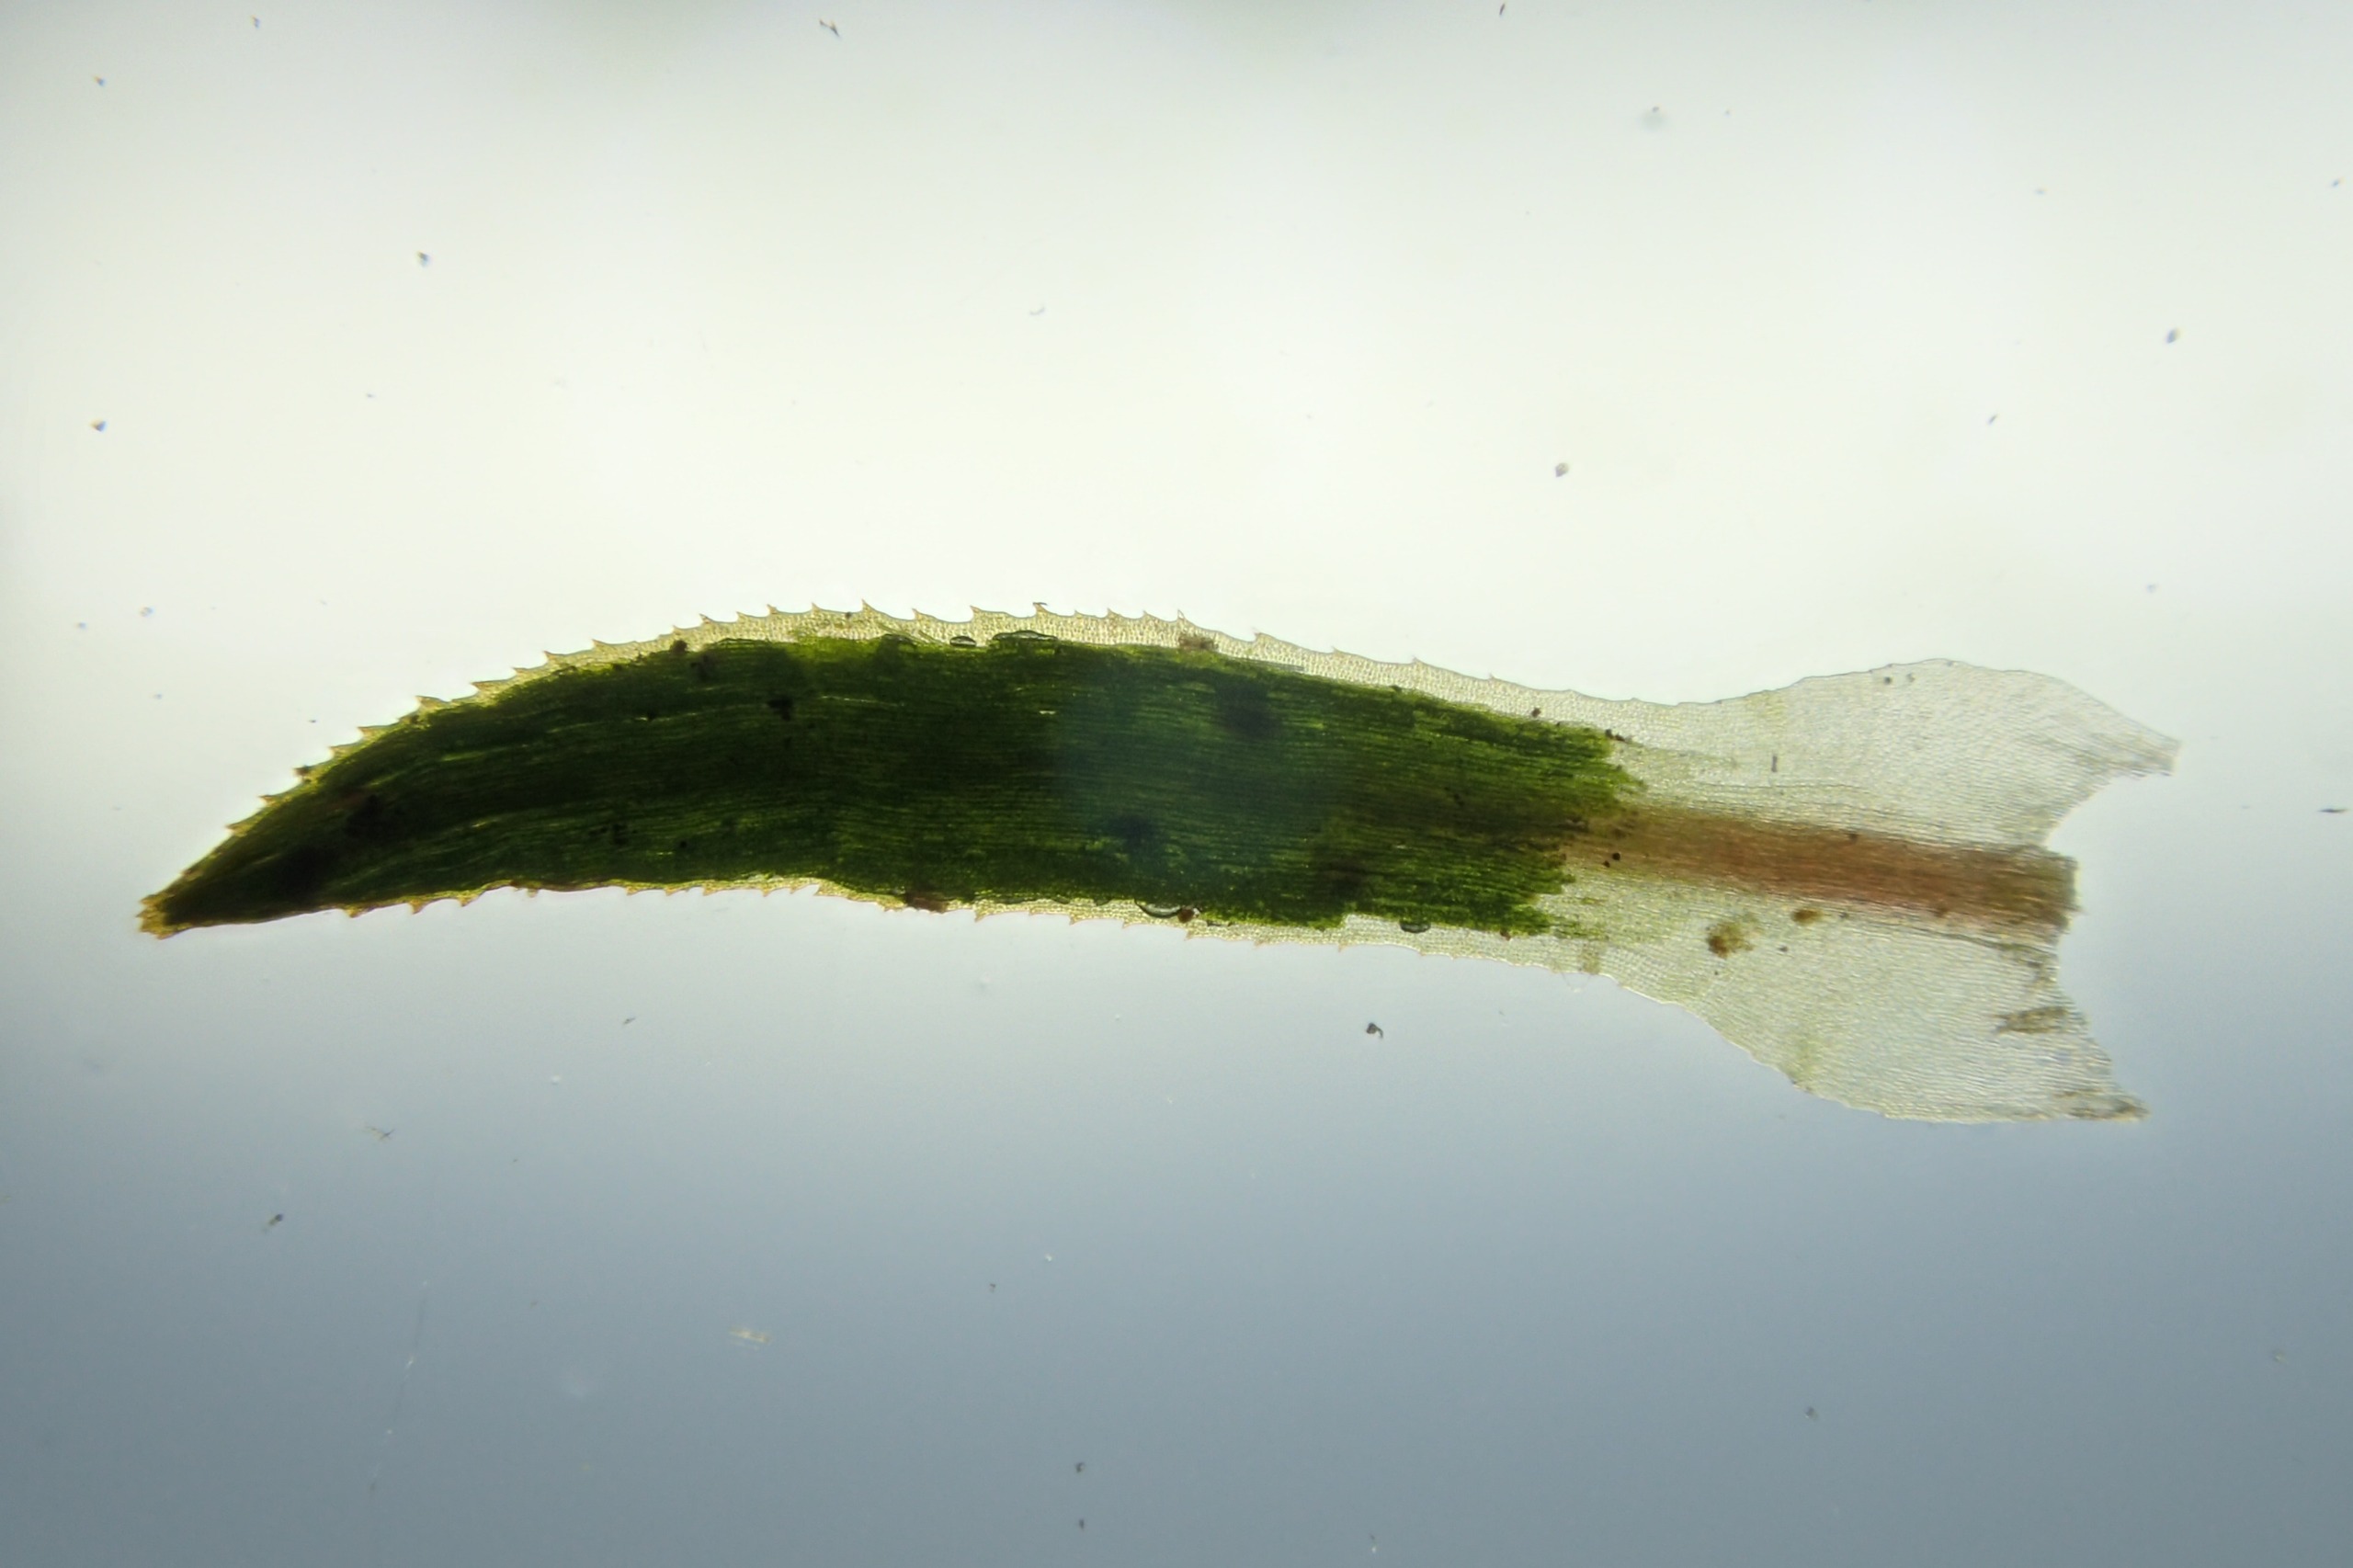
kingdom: Plantae
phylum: Bryophyta
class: Polytrichopsida
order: Polytrichales
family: Polytrichaceae
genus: Pogonatum
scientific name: Pogonatum aloides
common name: Smal urnekapsel
